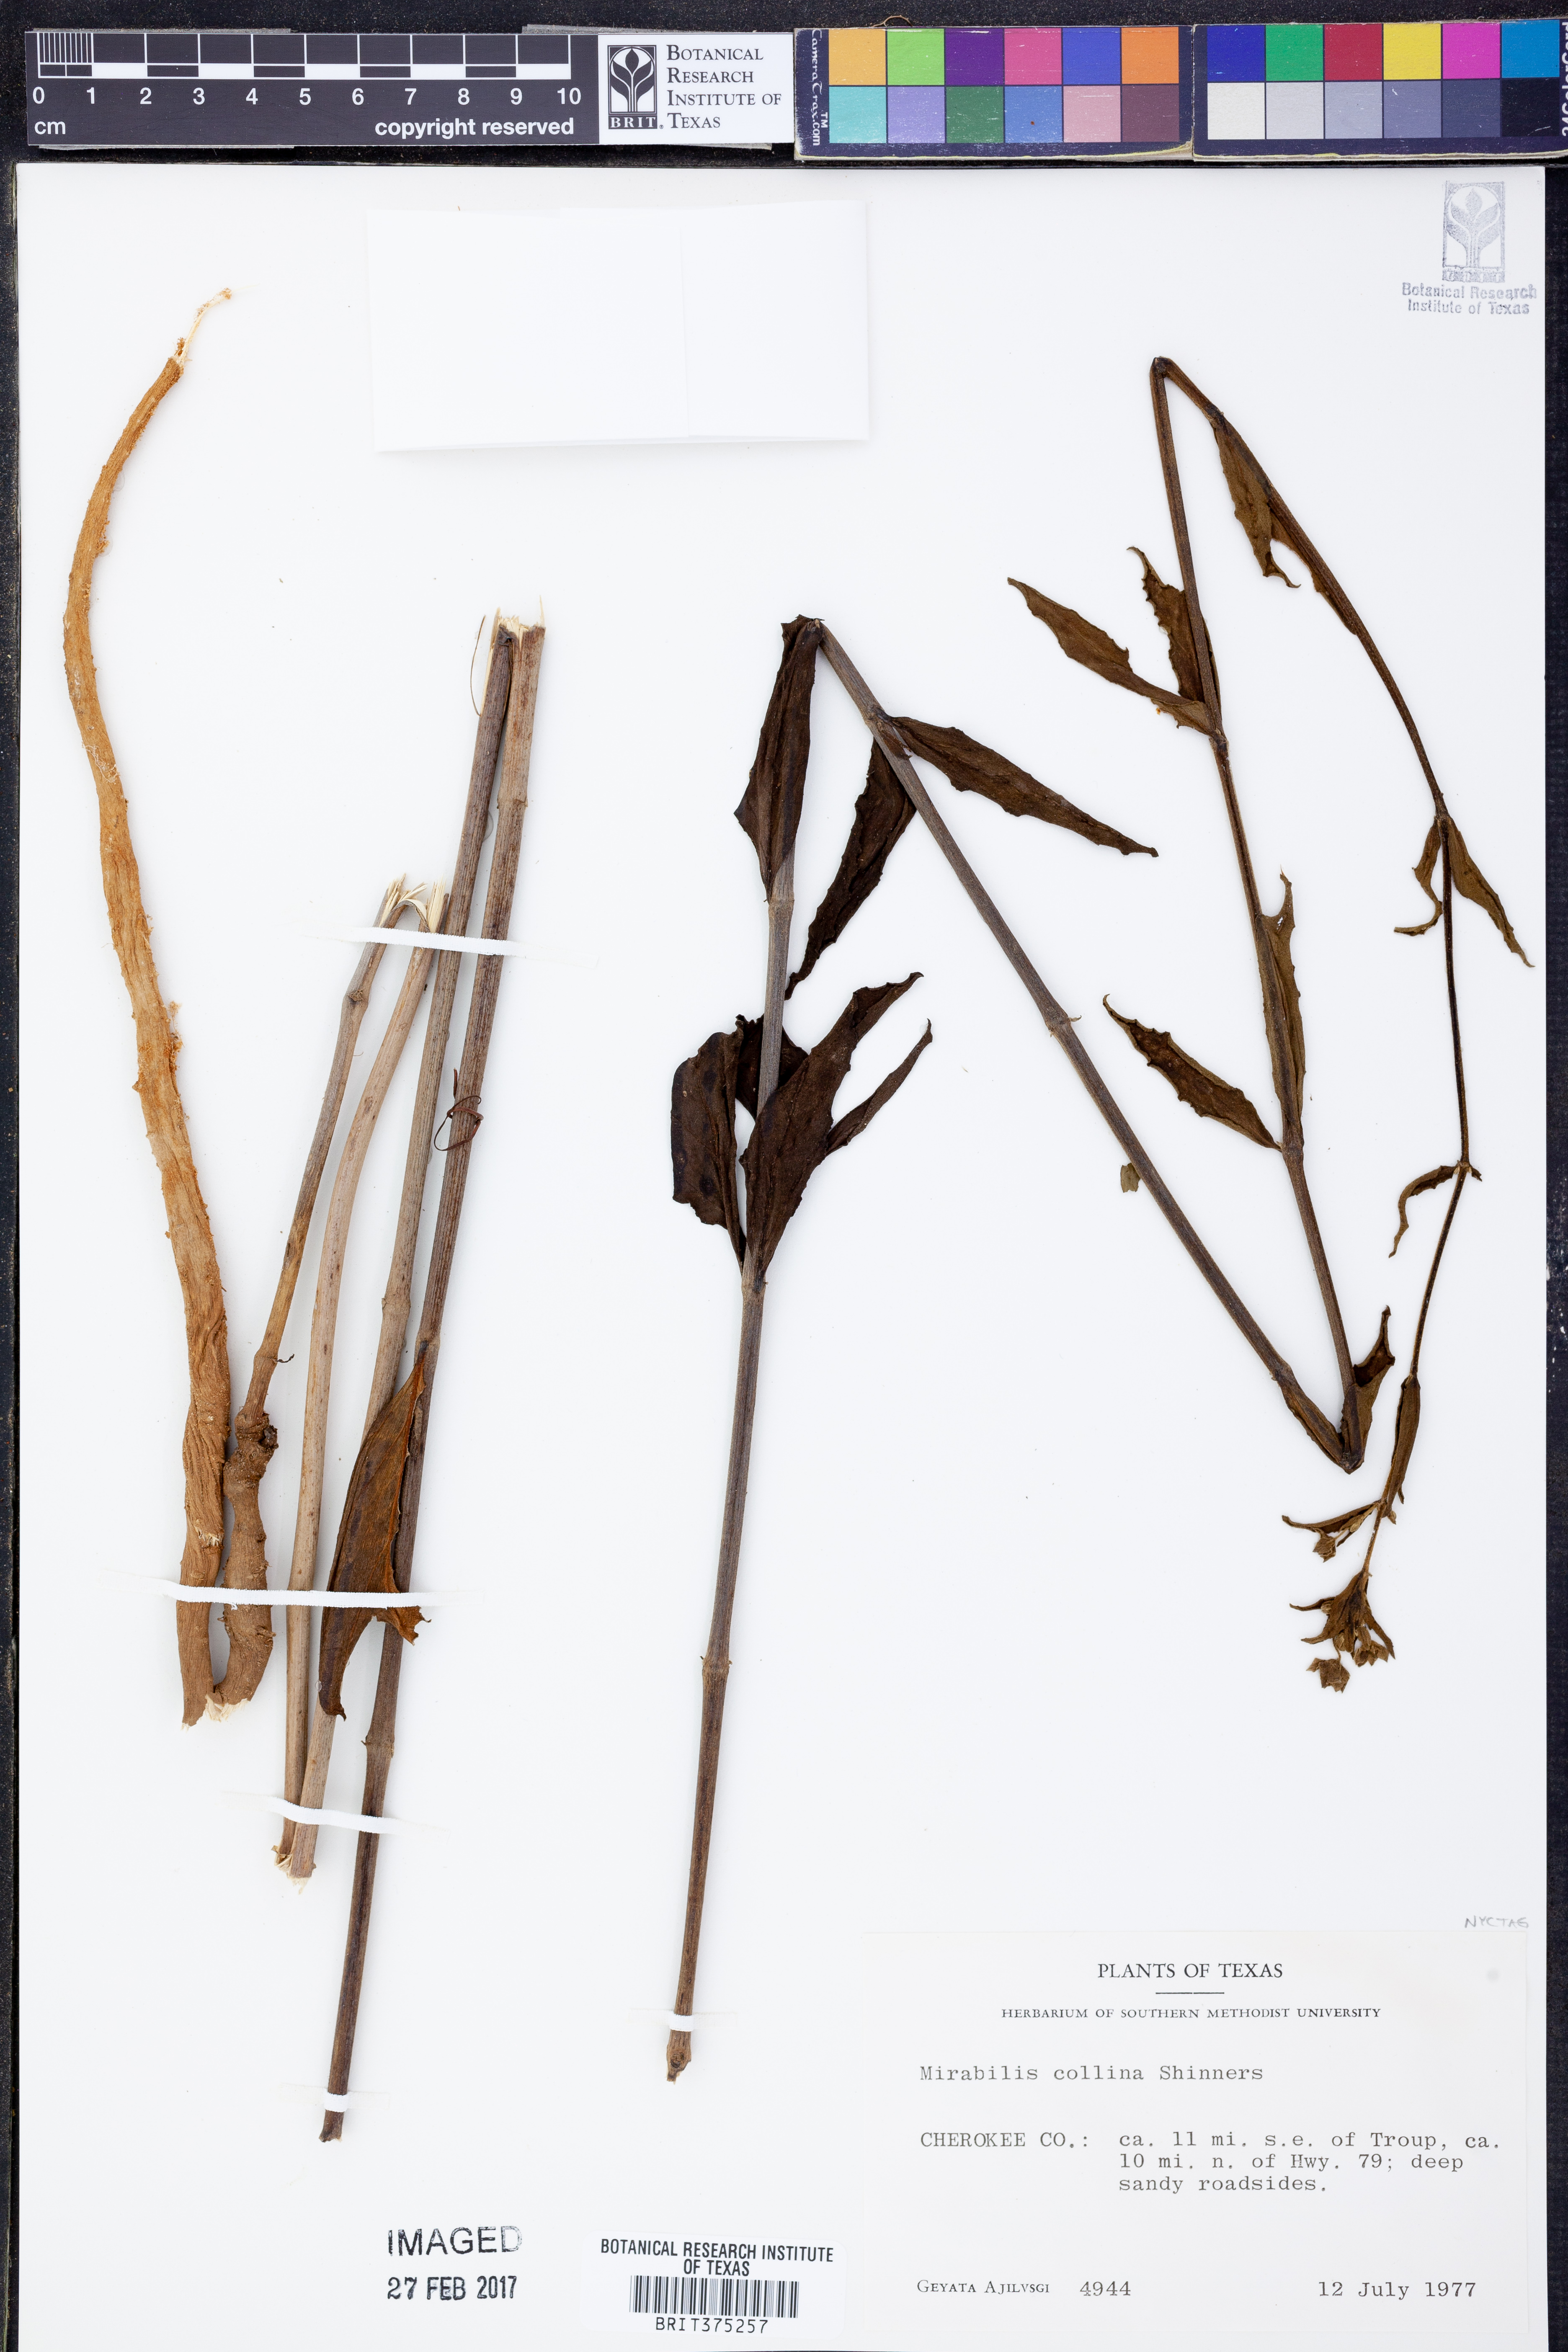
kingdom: Plantae
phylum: Tracheophyta
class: Magnoliopsida
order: Caryophyllales
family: Nyctaginaceae
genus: Mirabilis
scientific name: Mirabilis collina
